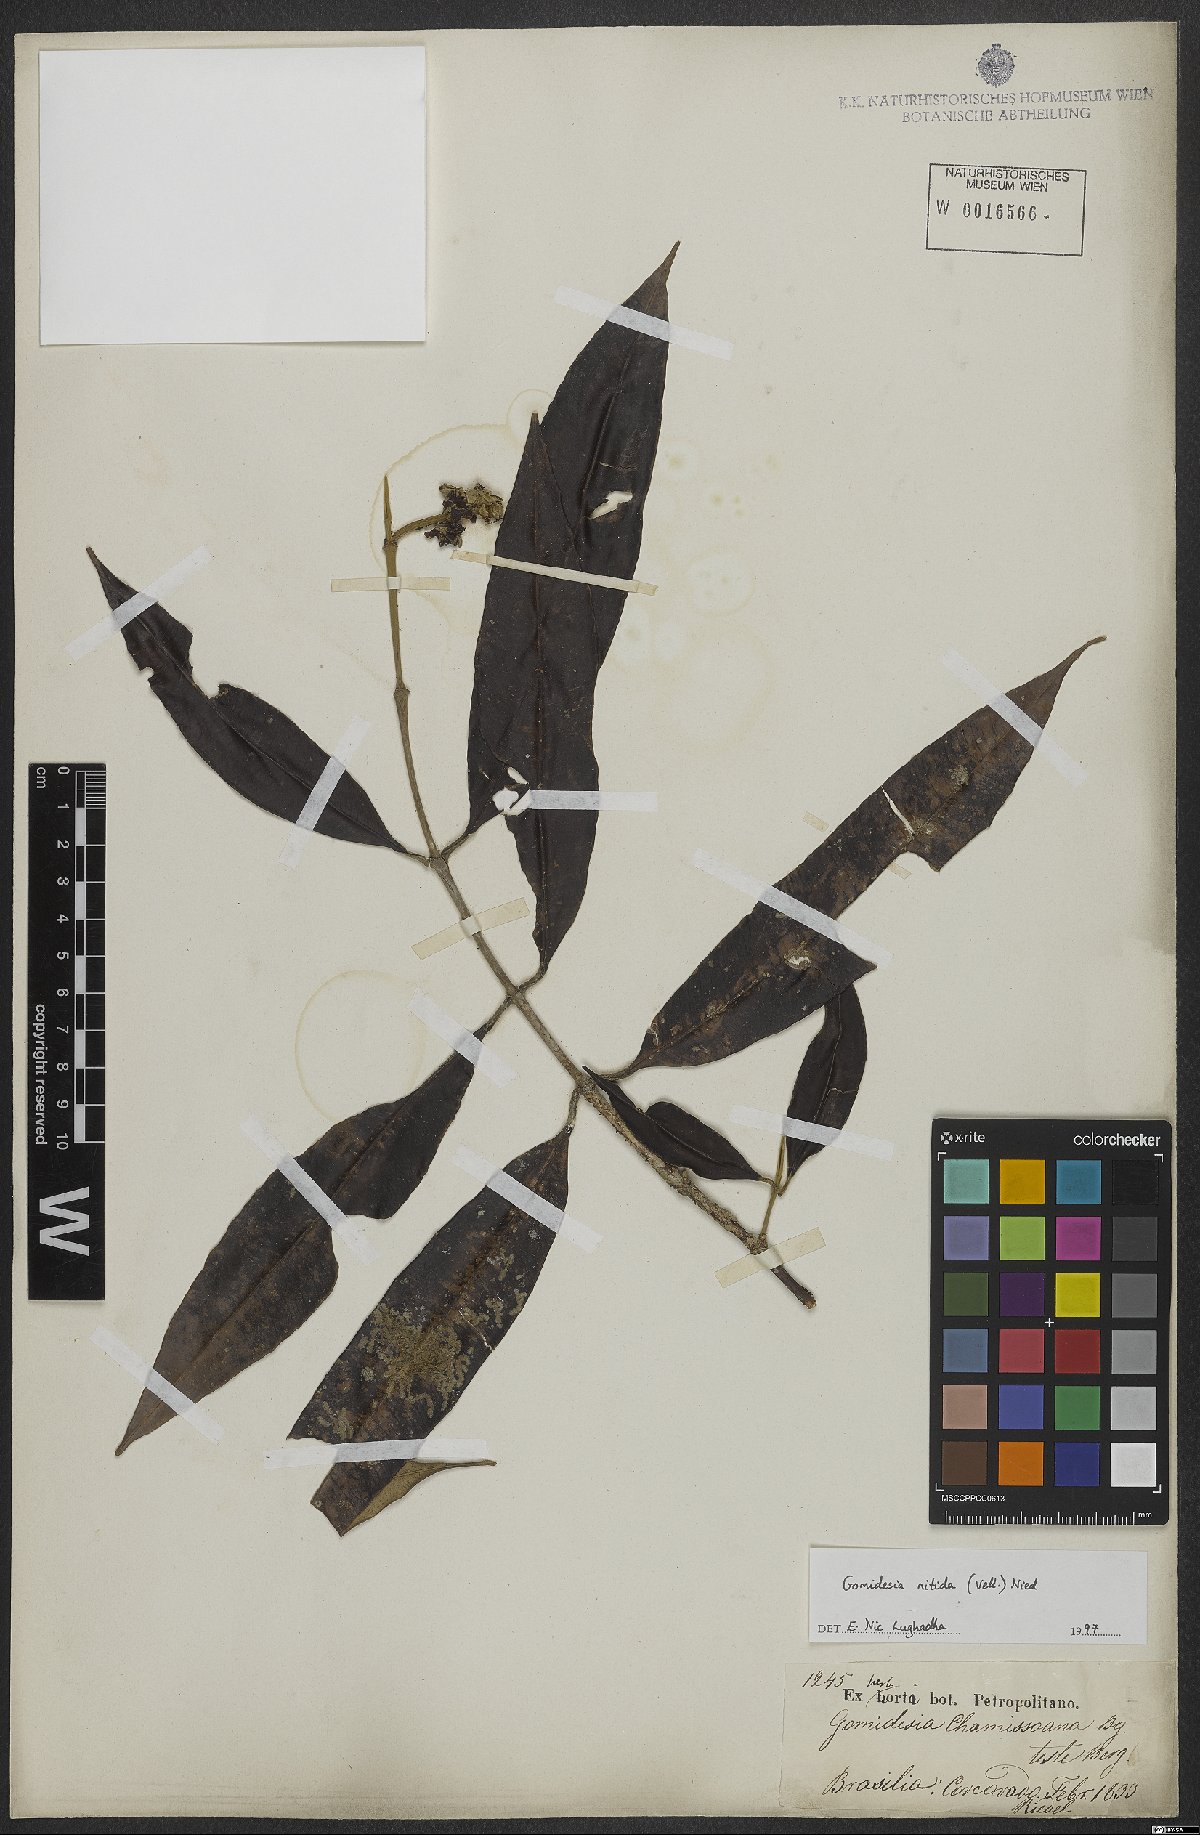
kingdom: Plantae
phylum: Tracheophyta
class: Magnoliopsida
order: Myrtales
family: Myrtaceae
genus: Myrcia
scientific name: Myrcia subsericea
